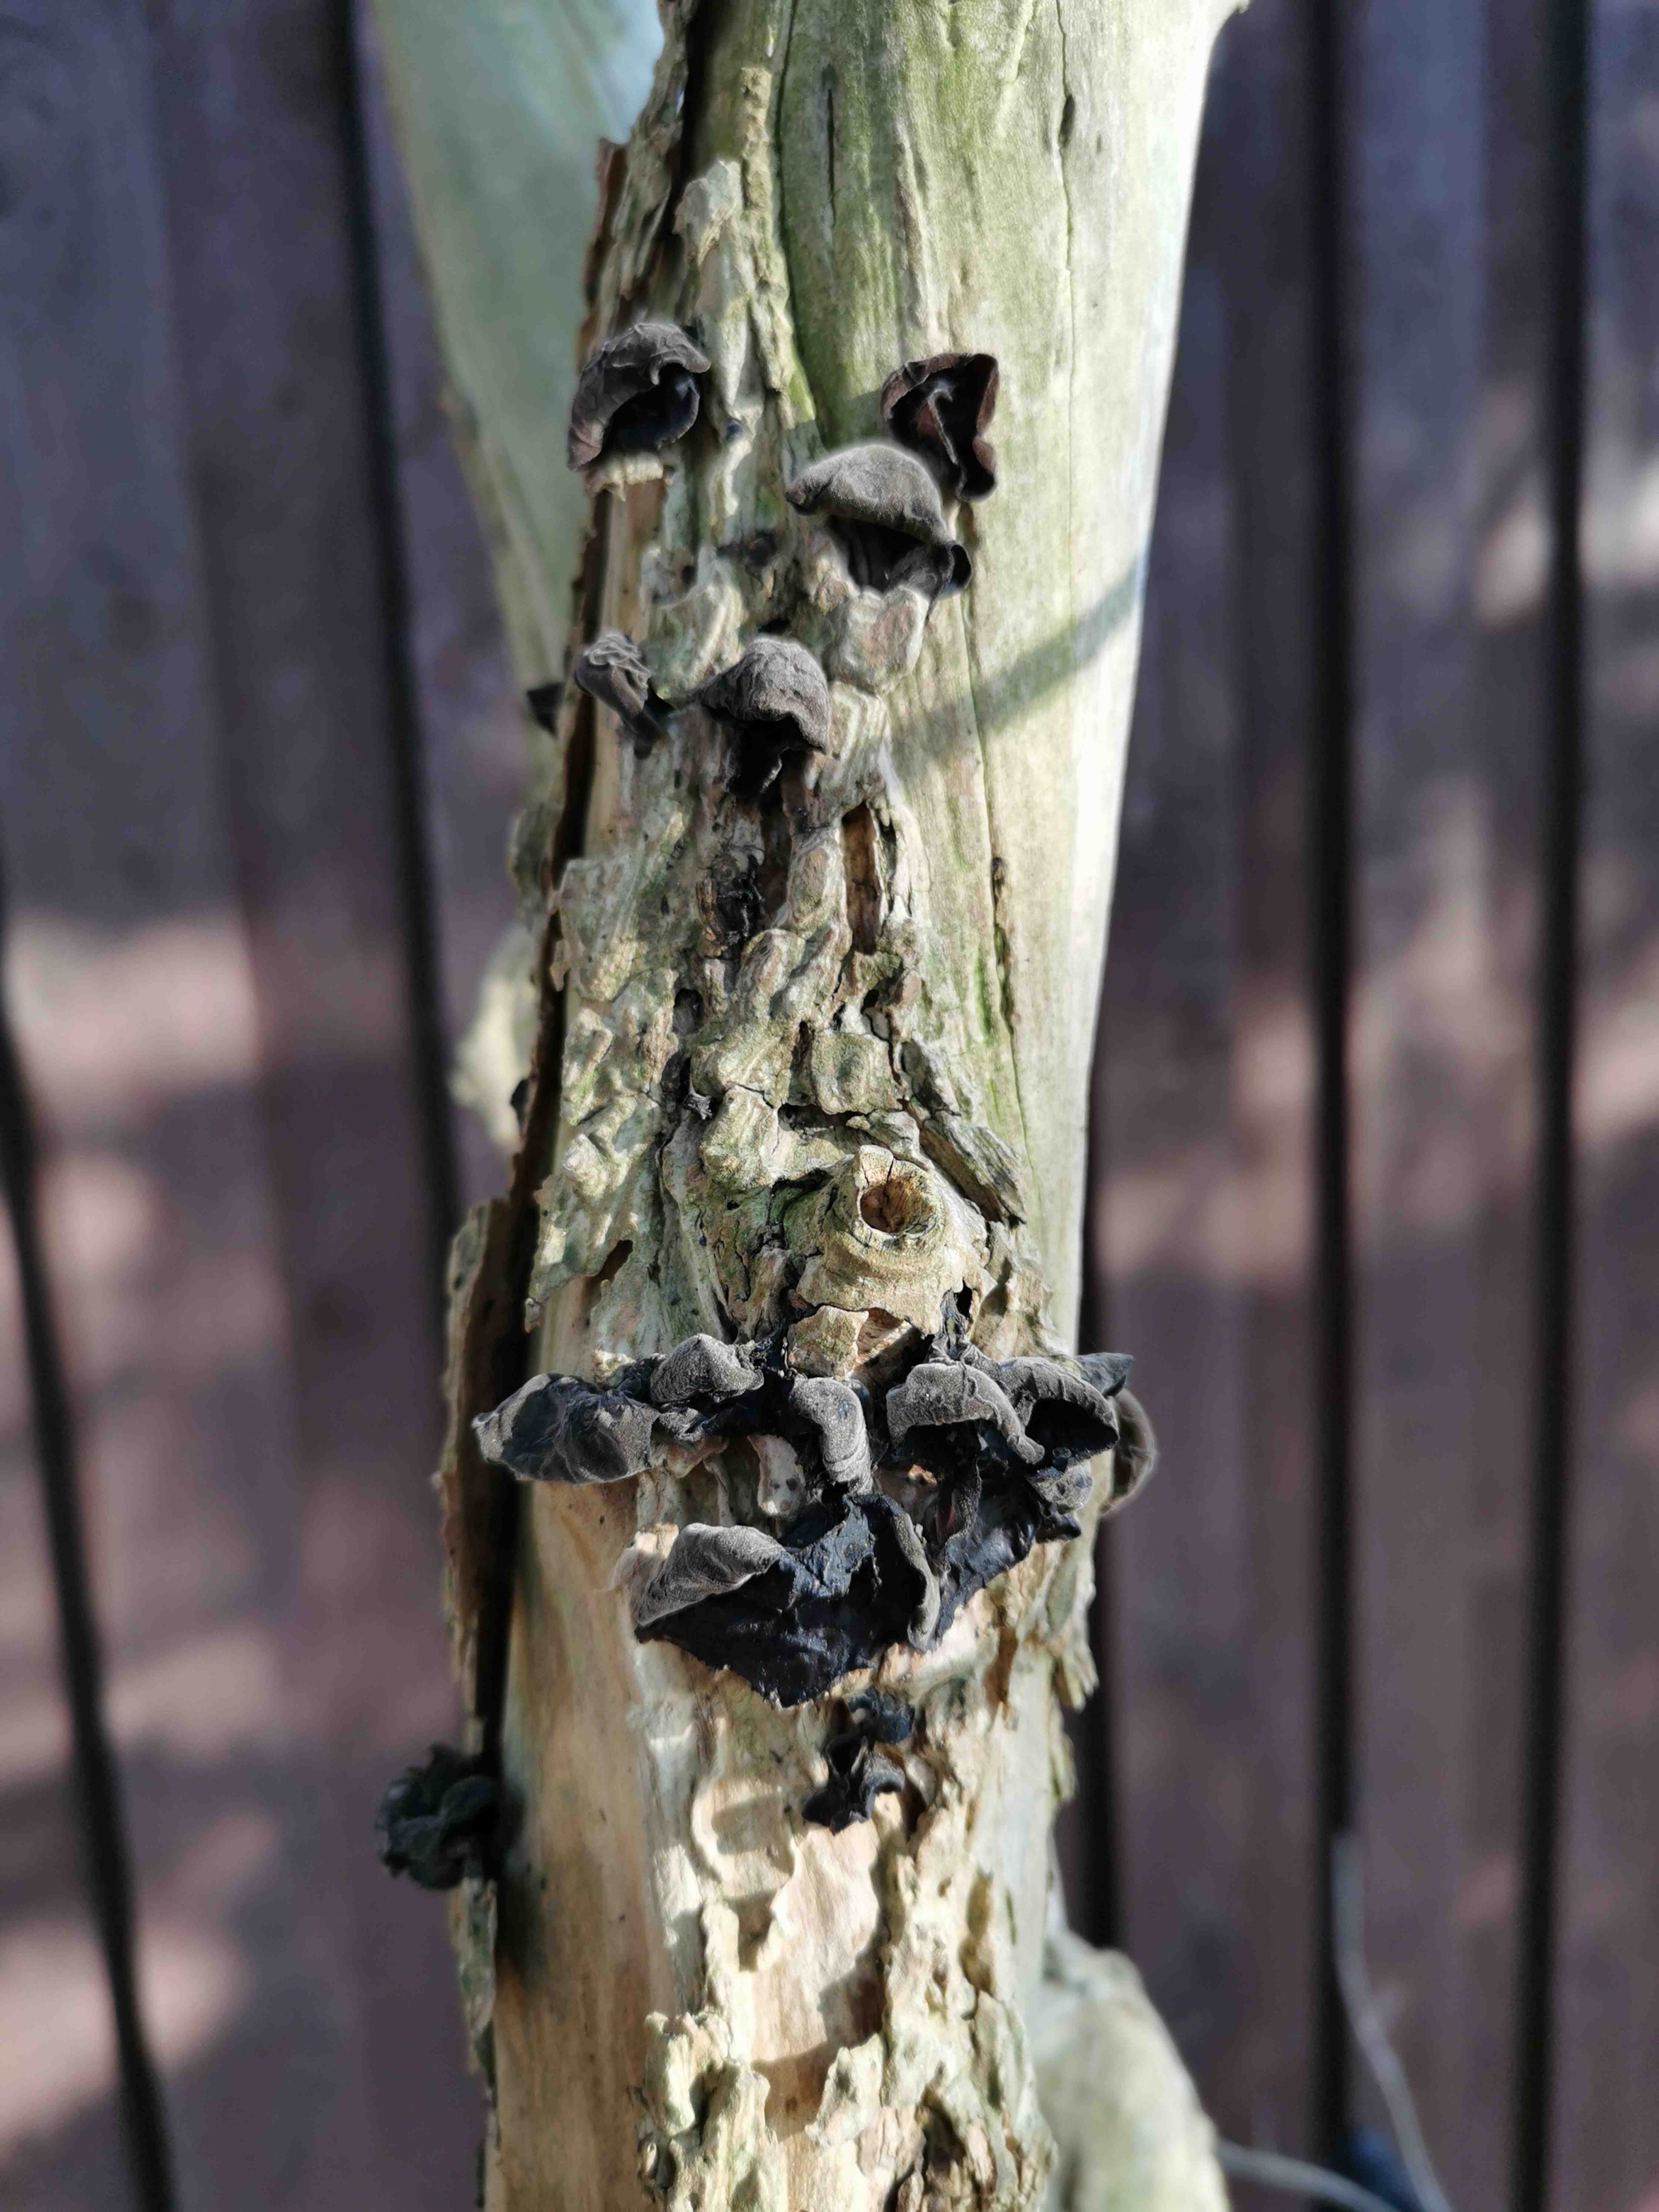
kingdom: Fungi
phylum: Basidiomycota
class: Agaricomycetes
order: Auriculariales
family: Auriculariaceae
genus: Auricularia
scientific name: Auricularia auricula-judae
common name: almindelig judasøre
